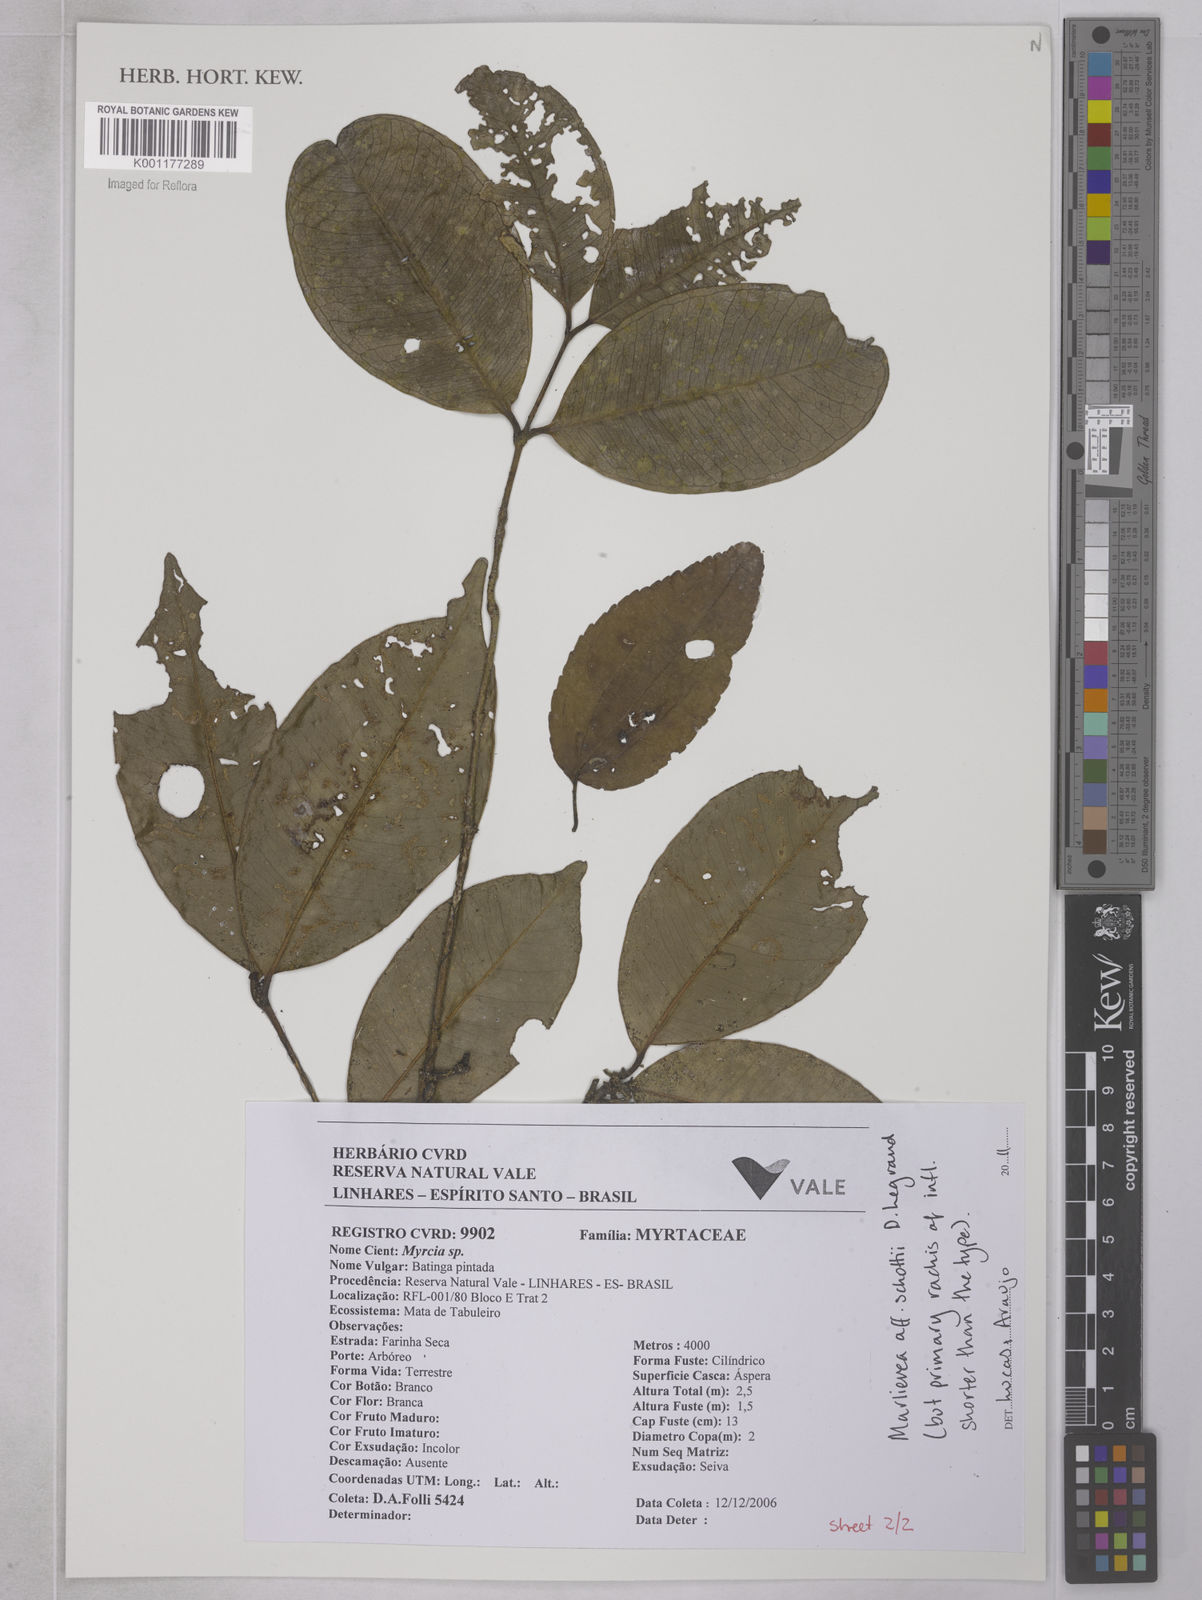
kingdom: Plantae
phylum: Tracheophyta
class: Magnoliopsida
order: Myrtales
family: Myrtaceae
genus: Myrcia
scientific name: Myrcia schottii
